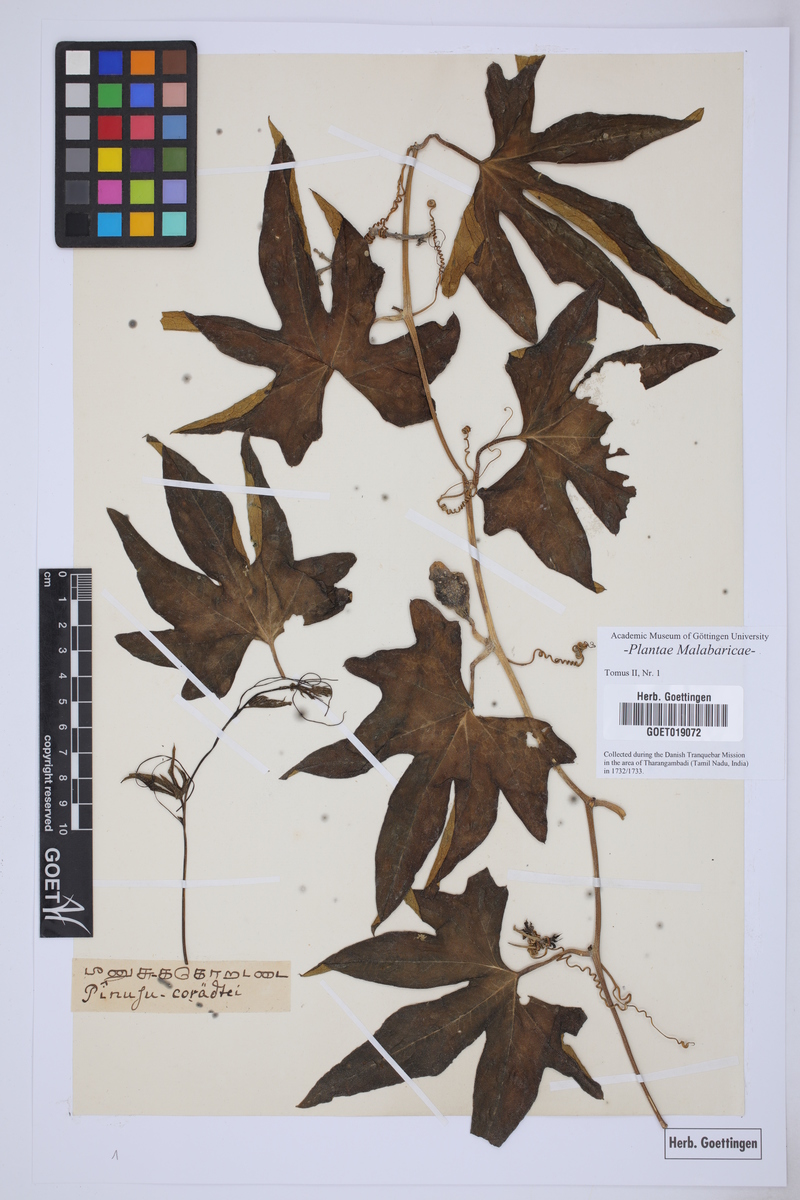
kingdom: Plantae
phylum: Tracheophyta
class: Magnoliopsida
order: Malpighiales
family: Passifloraceae
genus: Passiflora
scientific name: Passiflora
